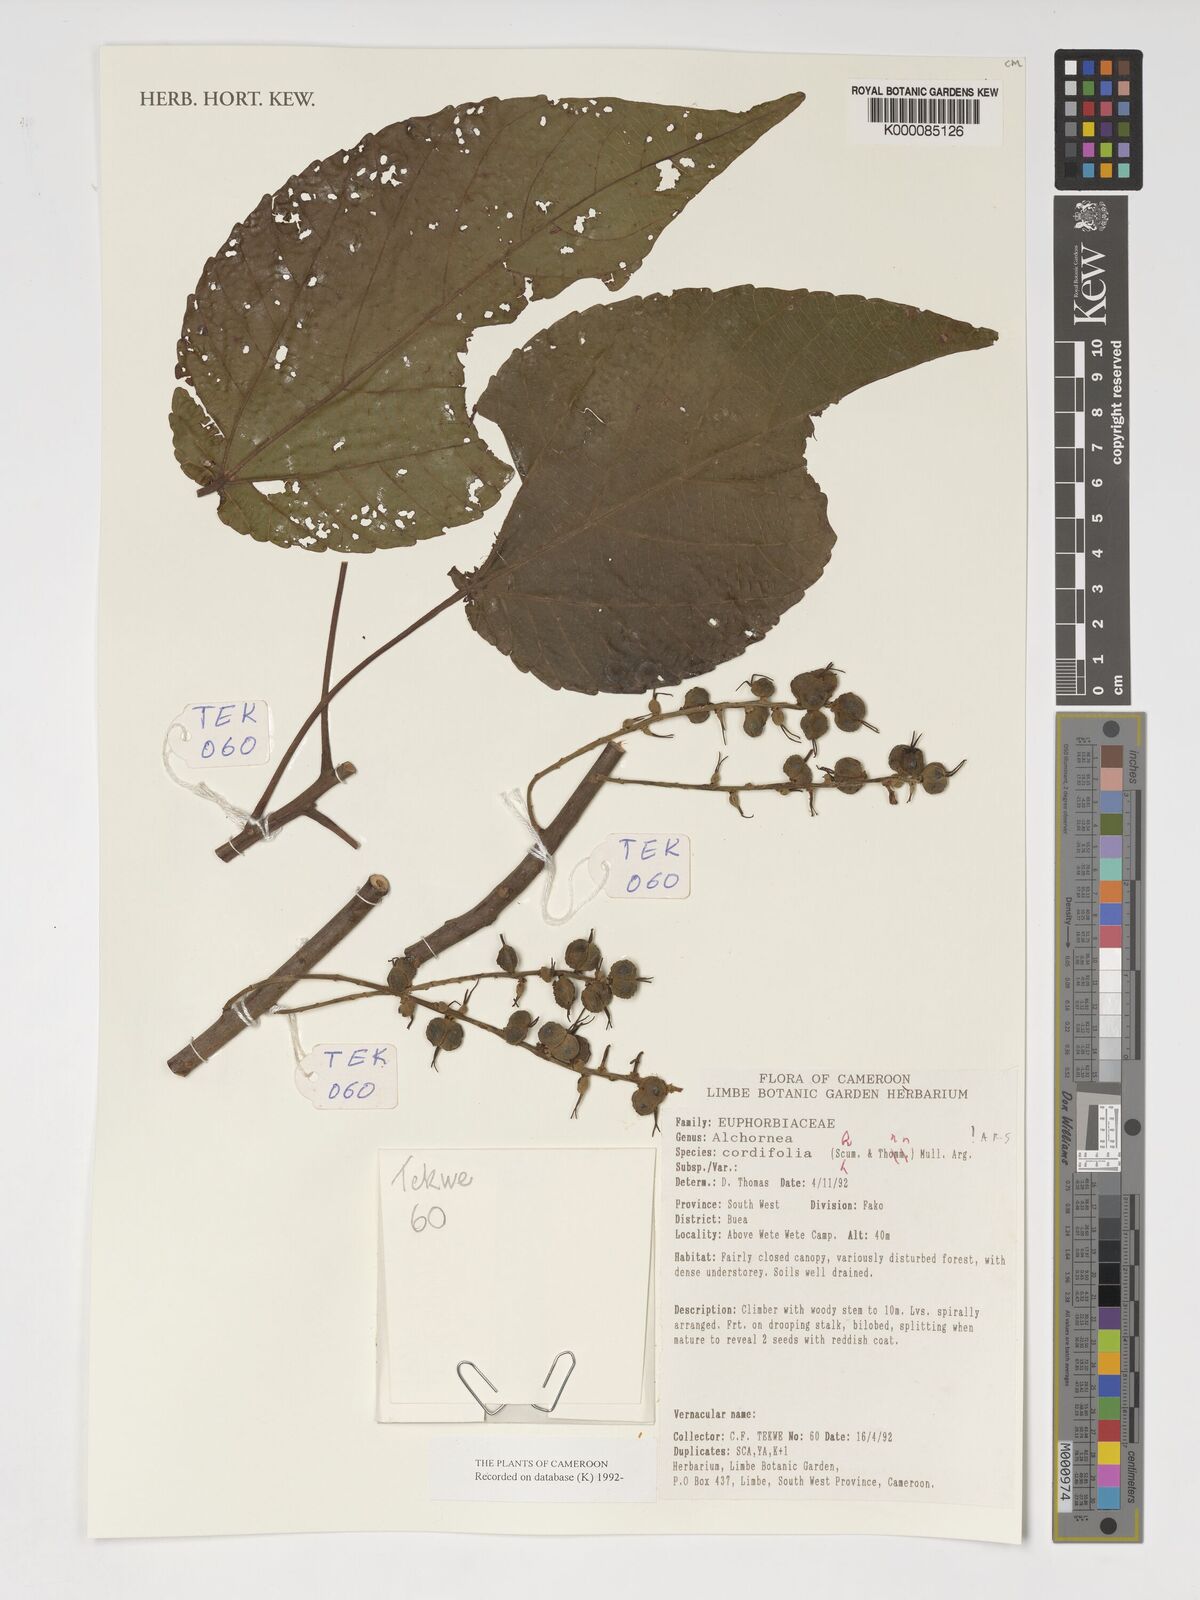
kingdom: Plantae
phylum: Tracheophyta
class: Magnoliopsida
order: Malpighiales
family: Euphorbiaceae
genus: Alchornea
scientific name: Alchornea
